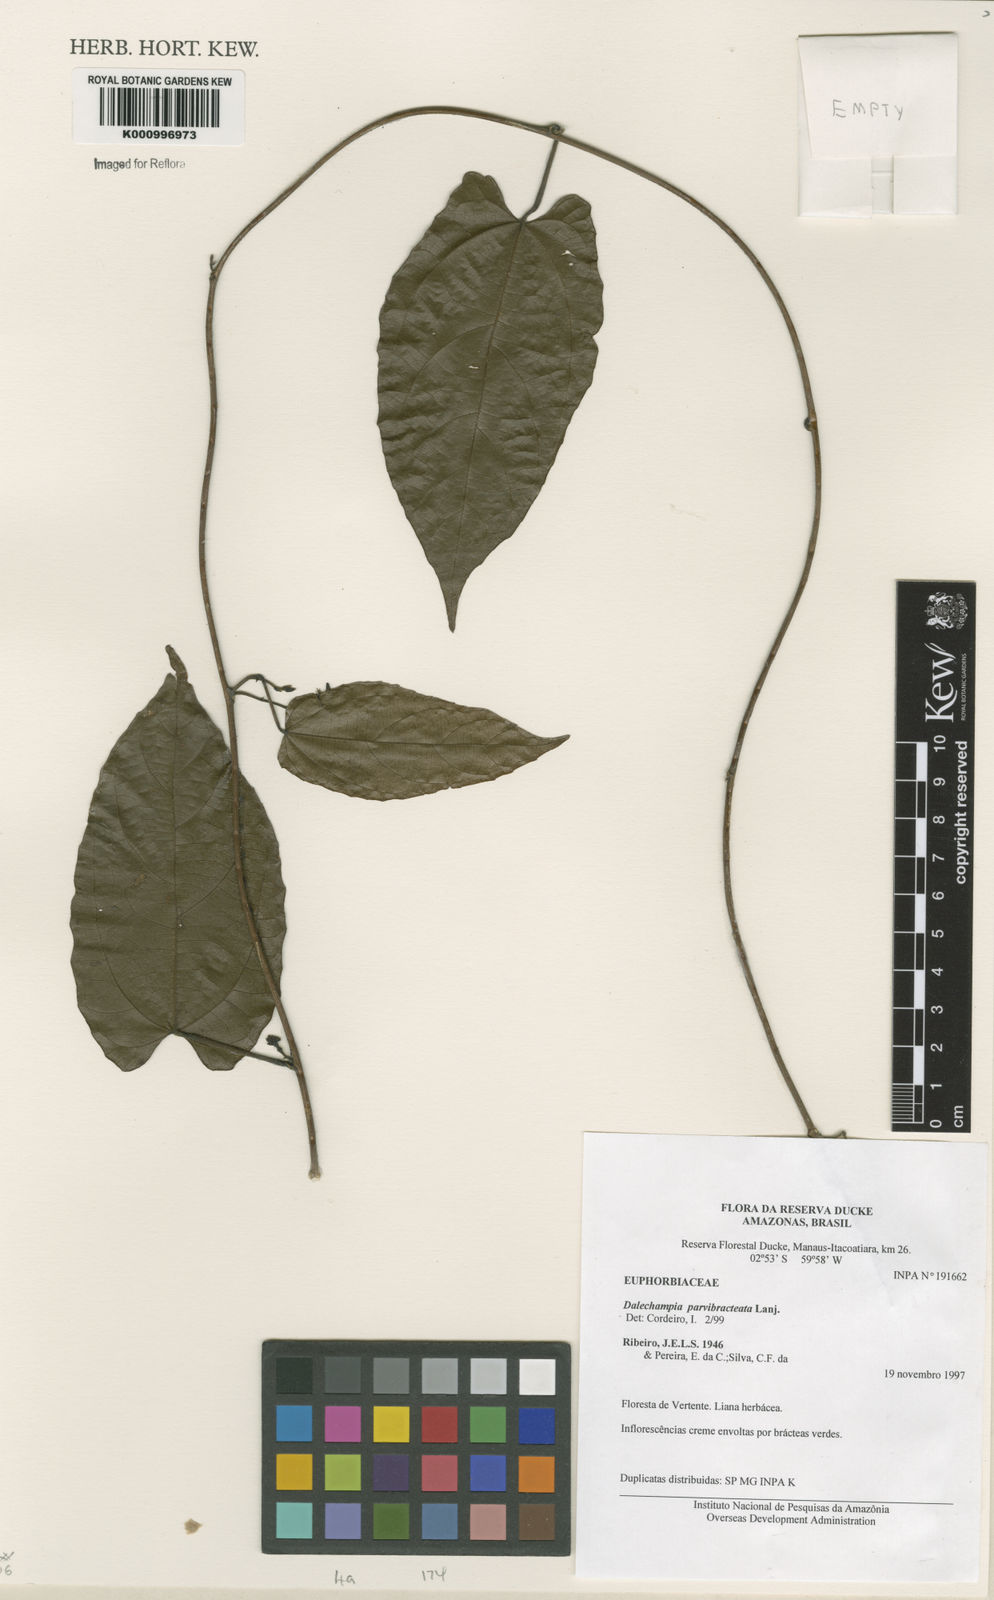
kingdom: Plantae
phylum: Tracheophyta
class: Magnoliopsida
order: Malpighiales
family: Euphorbiaceae
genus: Dalechampia
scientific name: Dalechampia parvibracteata
